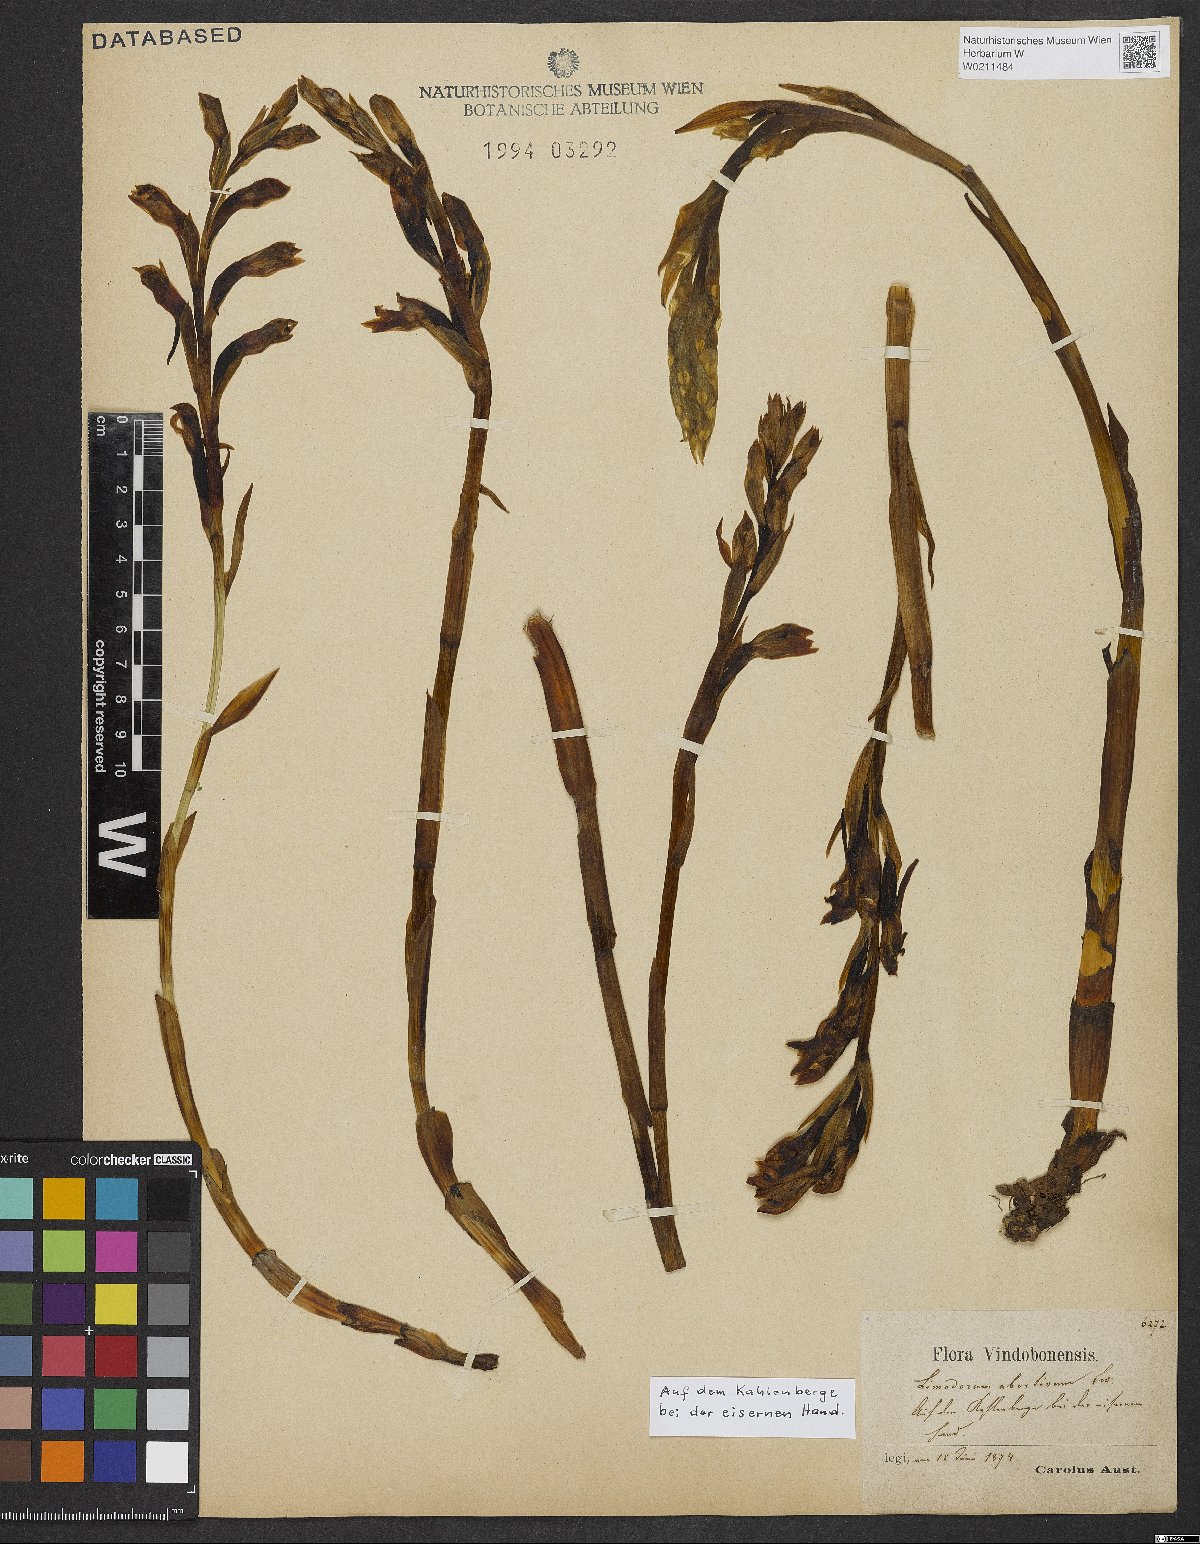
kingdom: Plantae
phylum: Tracheophyta
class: Liliopsida
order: Asparagales
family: Orchidaceae
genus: Limodorum
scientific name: Limodorum abortivum
